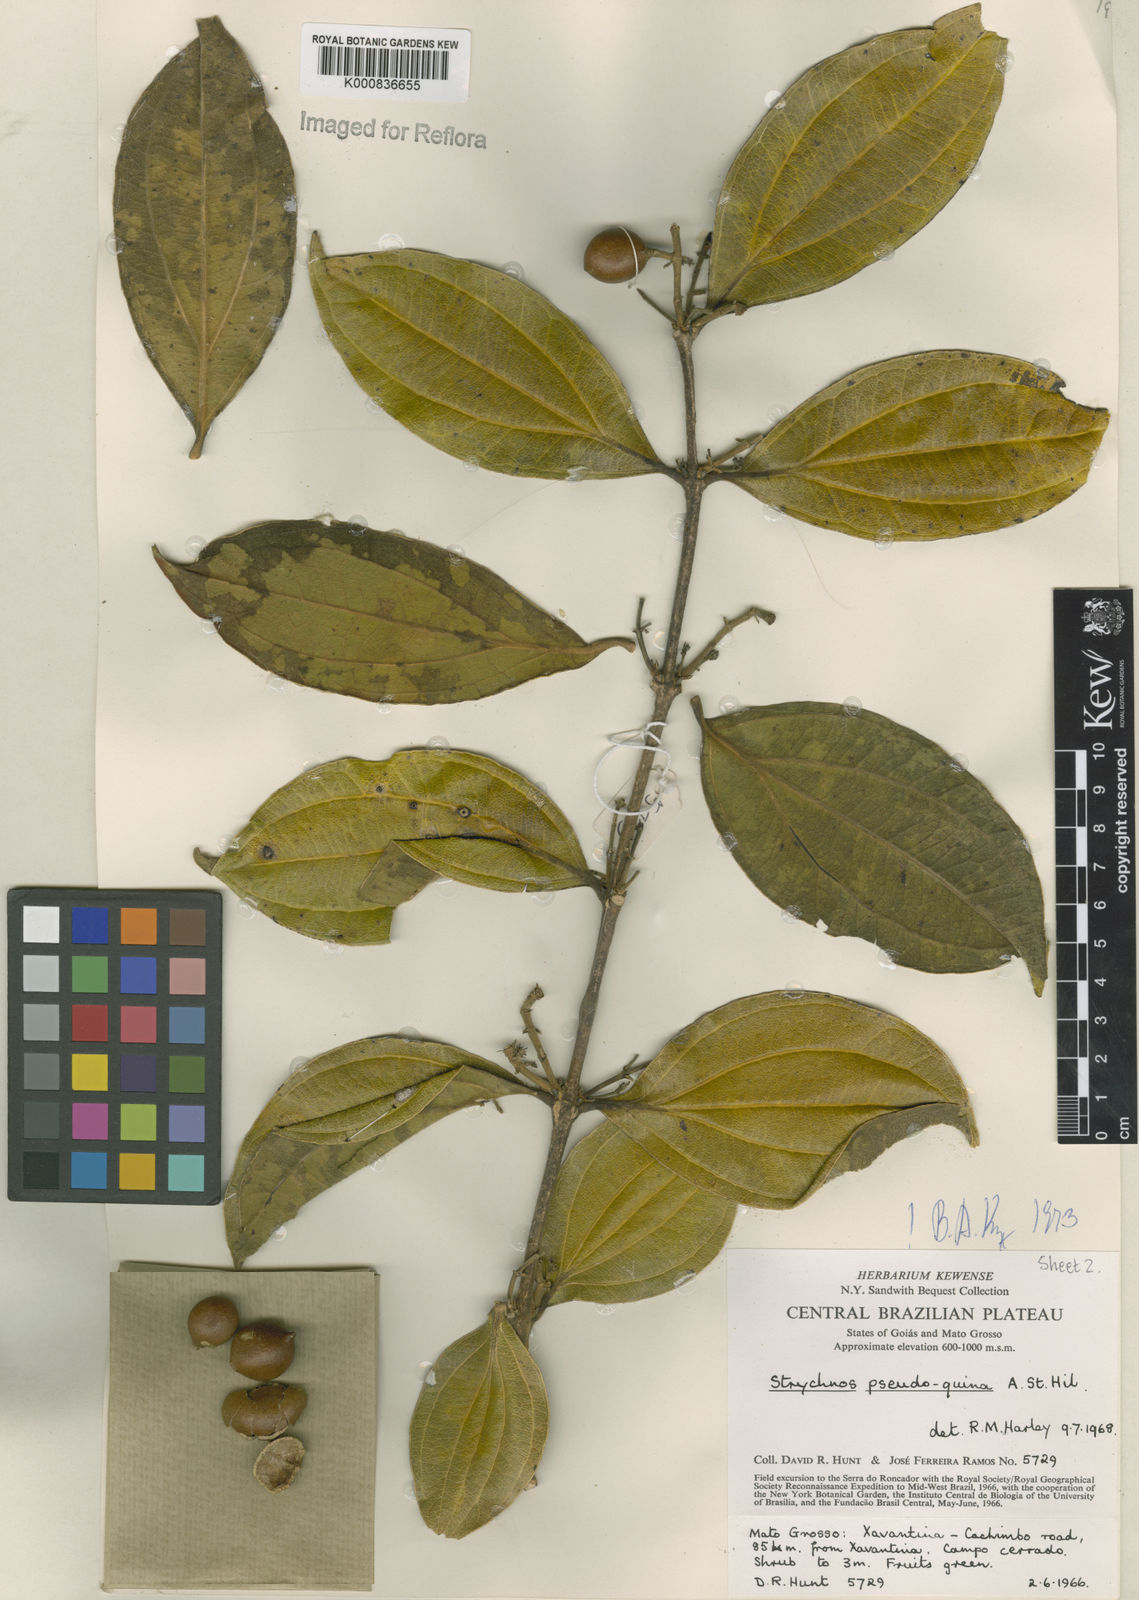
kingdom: Plantae
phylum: Tracheophyta
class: Magnoliopsida
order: Gentianales
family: Loganiaceae
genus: Strychnos
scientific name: Strychnos pseudoquina
